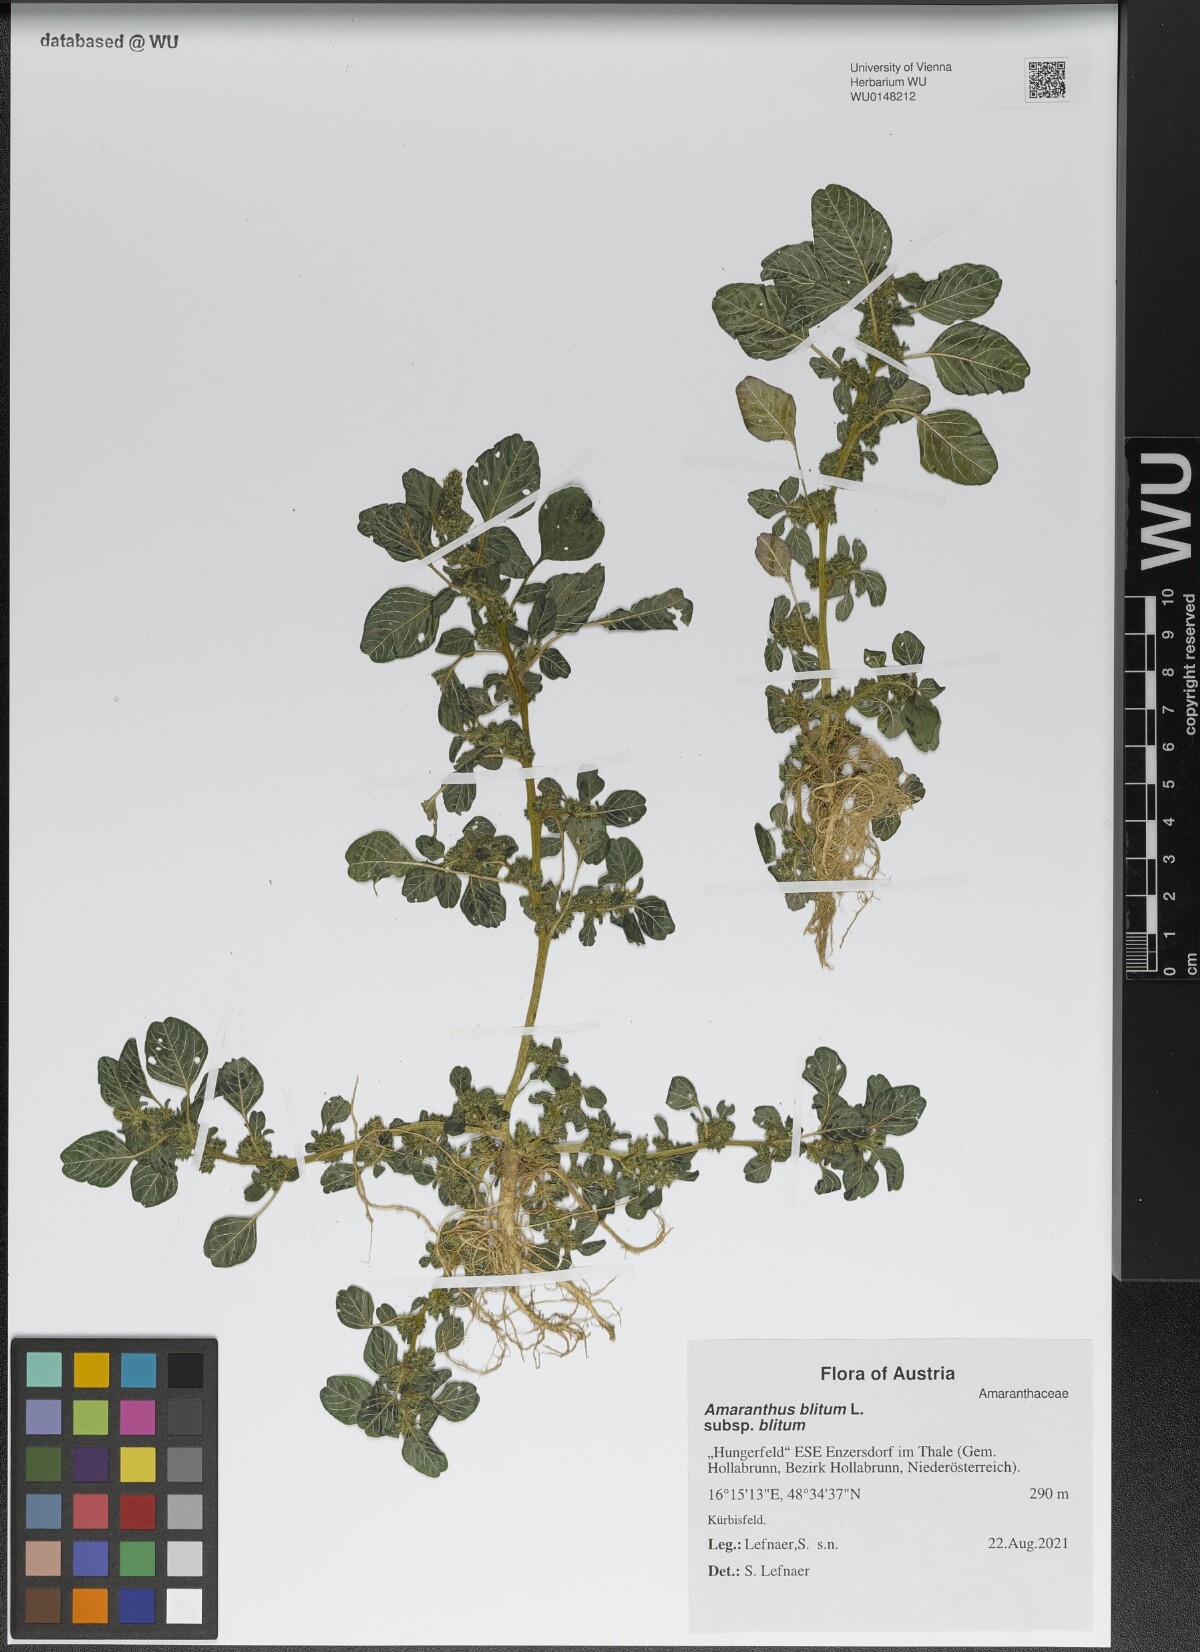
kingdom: Plantae
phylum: Tracheophyta
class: Magnoliopsida
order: Caryophyllales
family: Amaranthaceae
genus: Amaranthus
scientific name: Amaranthus blitum
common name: Purple amaranth
